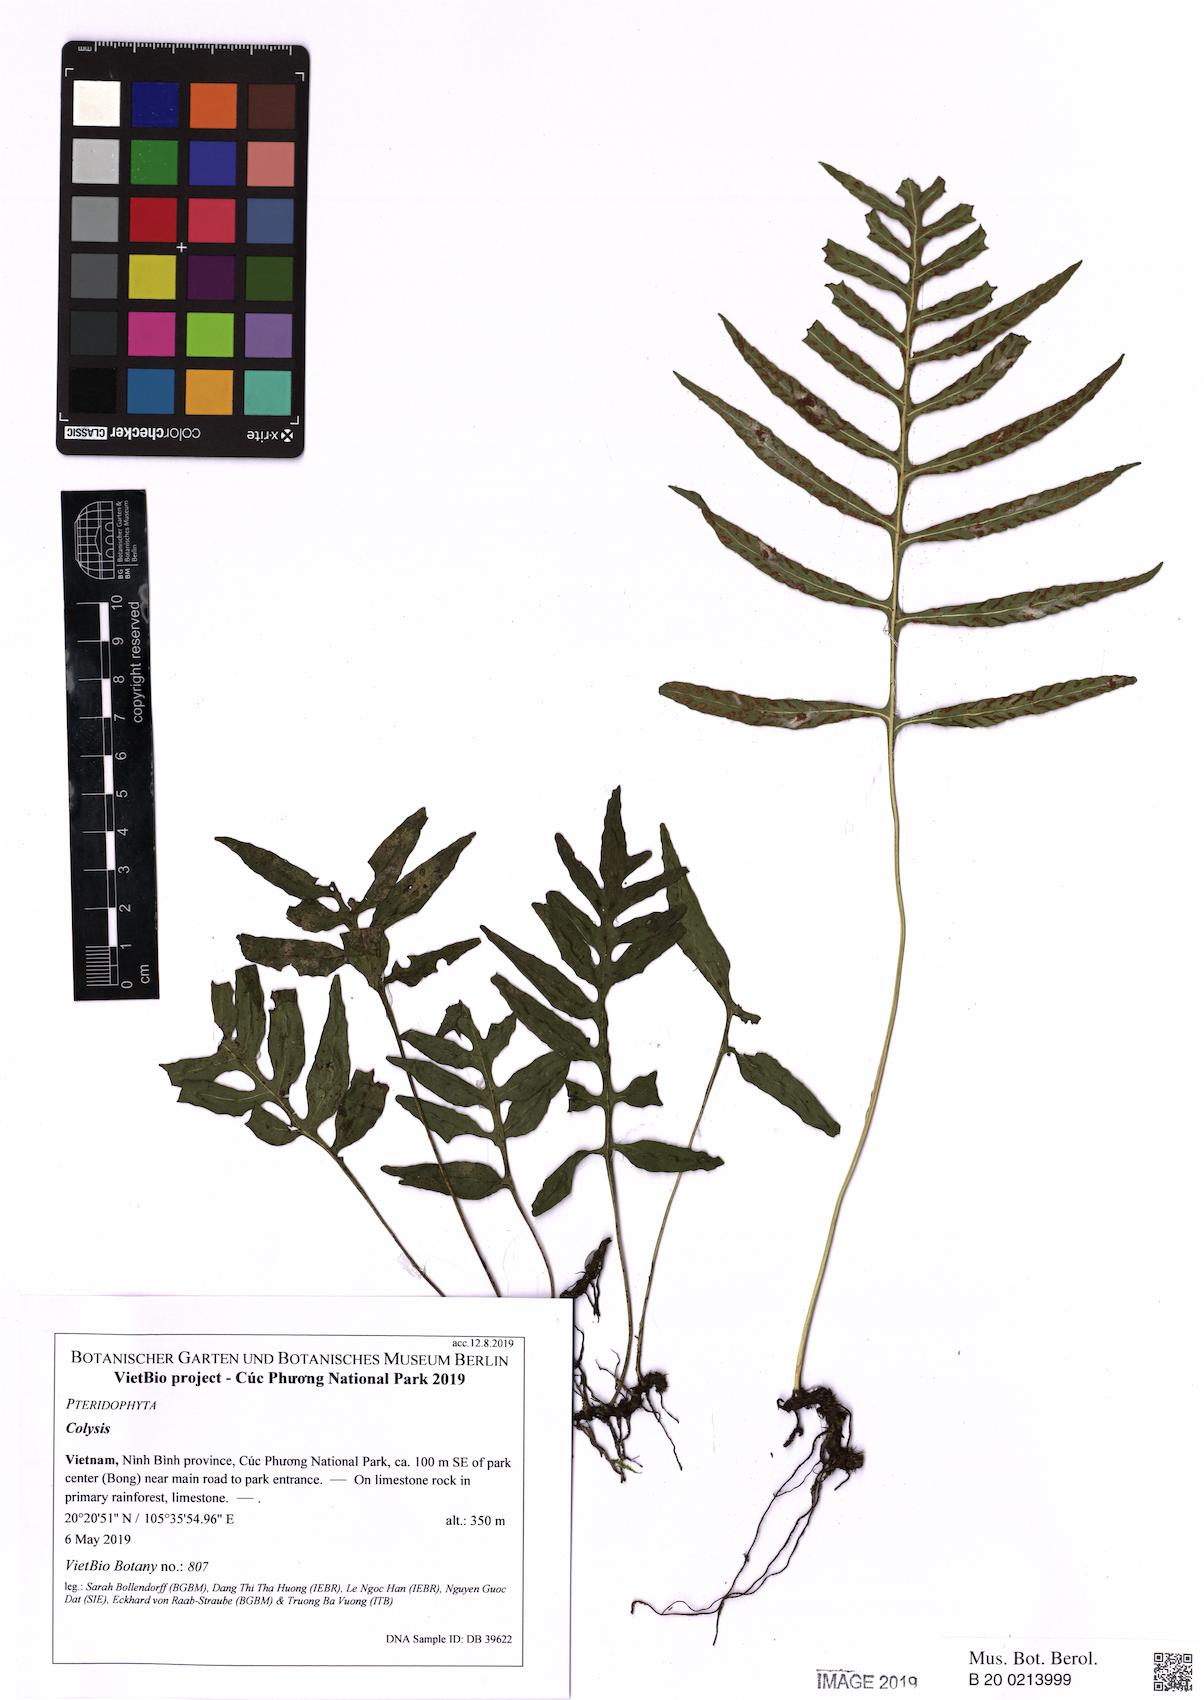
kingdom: Plantae
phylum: Tracheophyta
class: Polypodiopsida
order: Polypodiales
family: Polypodiaceae
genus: Leptochilus
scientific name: Leptochilus ellipticus
